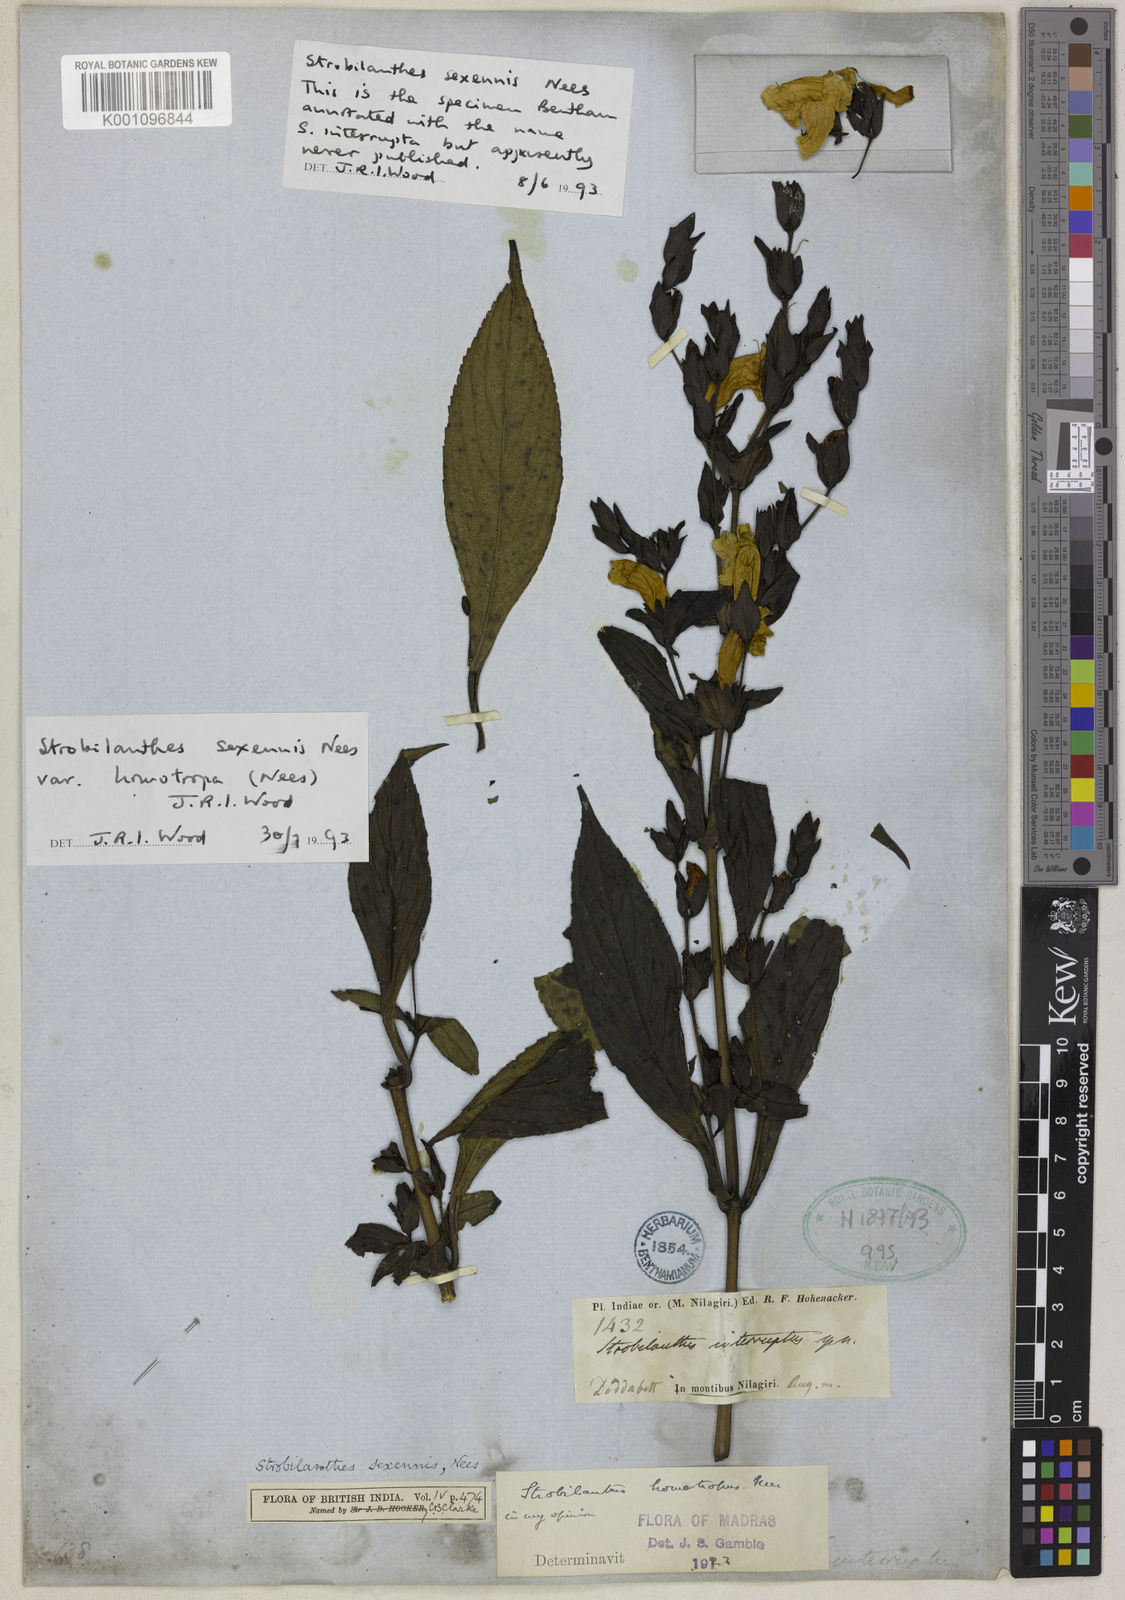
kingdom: Plantae
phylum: Tracheophyta
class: Magnoliopsida
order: Lamiales
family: Acanthaceae
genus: Strobilanthes
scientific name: Strobilanthes homotropa
